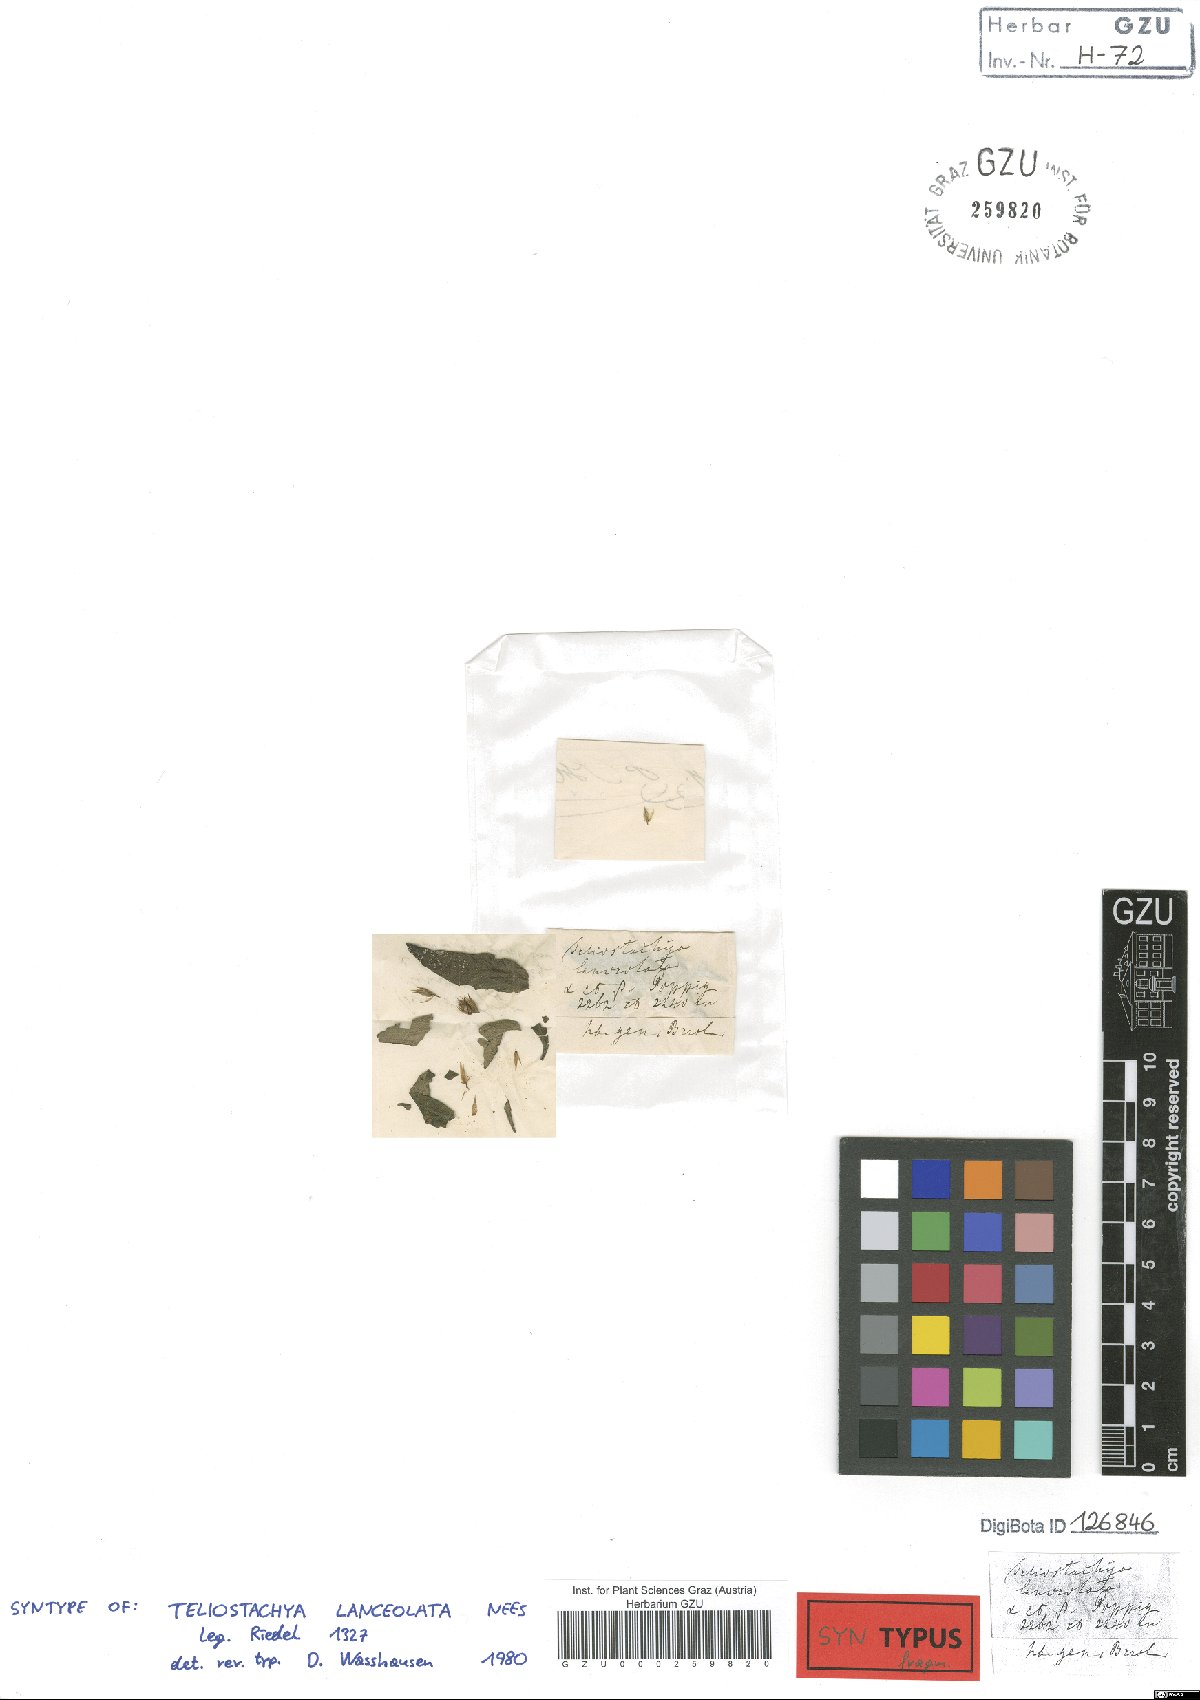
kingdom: Plantae
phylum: Tracheophyta
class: Magnoliopsida
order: Lamiales
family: Acanthaceae
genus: Lepidagathis
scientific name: Lepidagathis alopecuroidea
